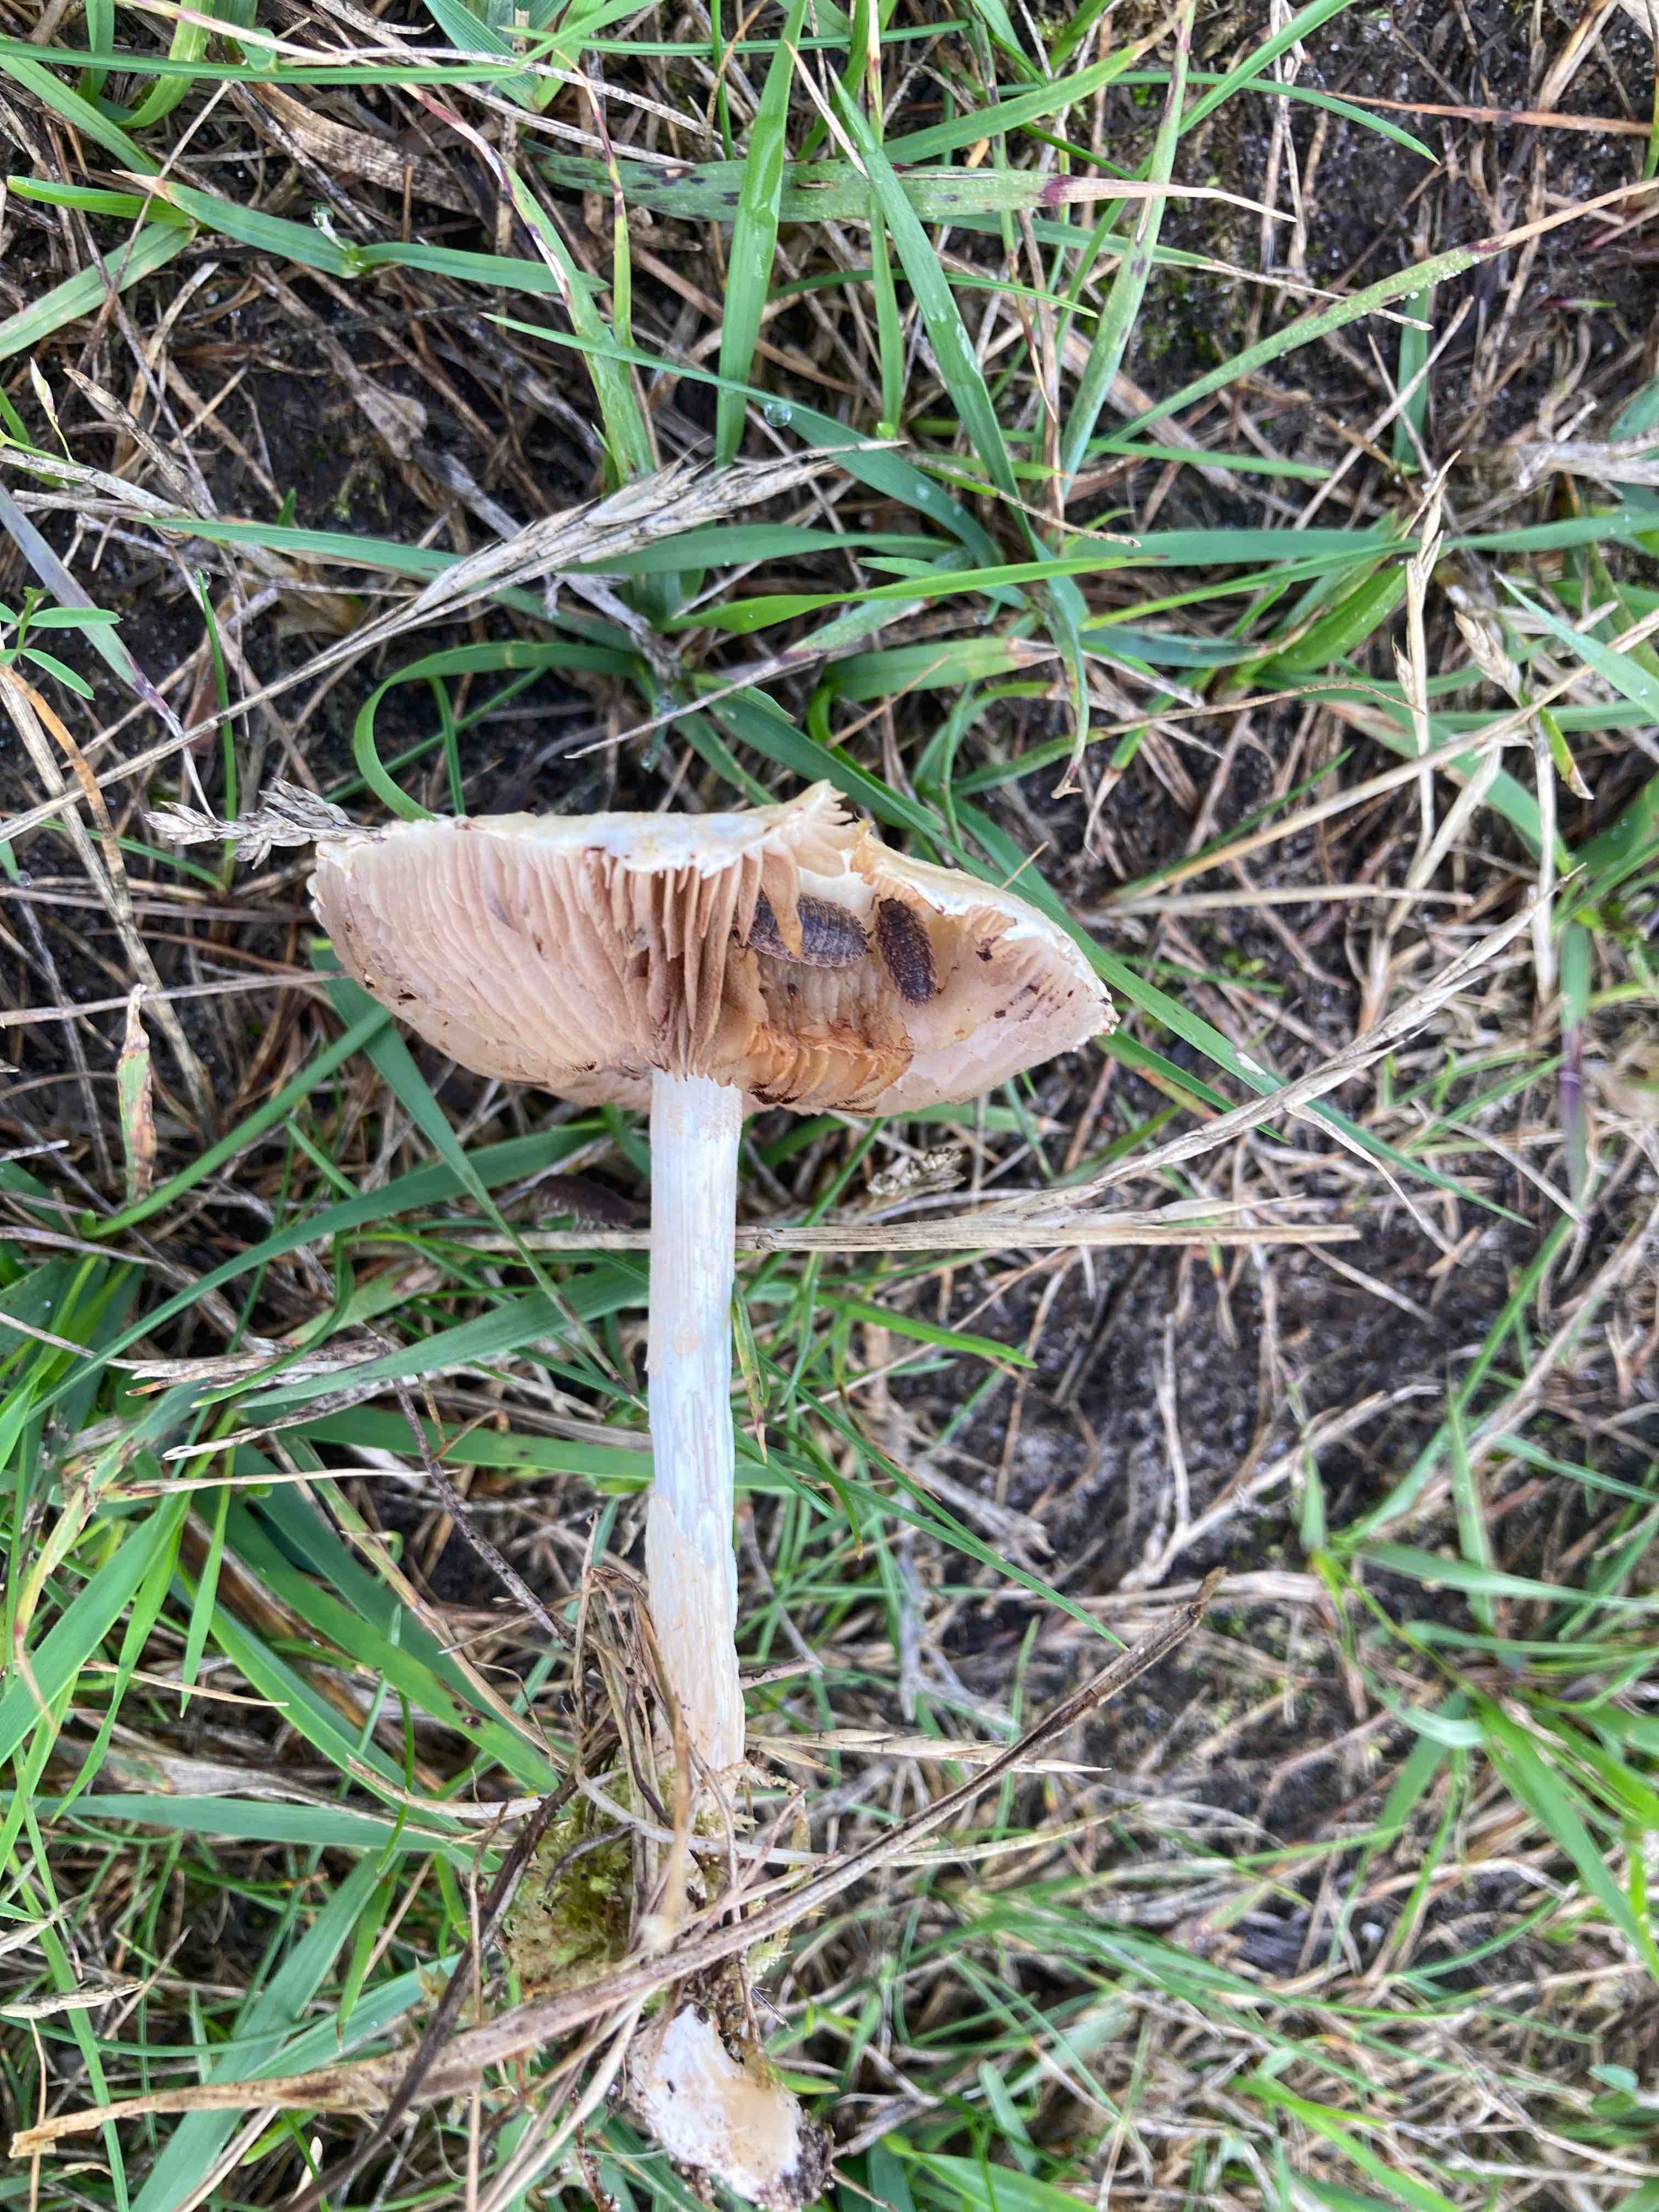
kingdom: Fungi
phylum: Basidiomycota
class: Agaricomycetes
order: Agaricales
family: Strophariaceae
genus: Agrocybe
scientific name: Agrocybe dura
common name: fastkødet agerhat
